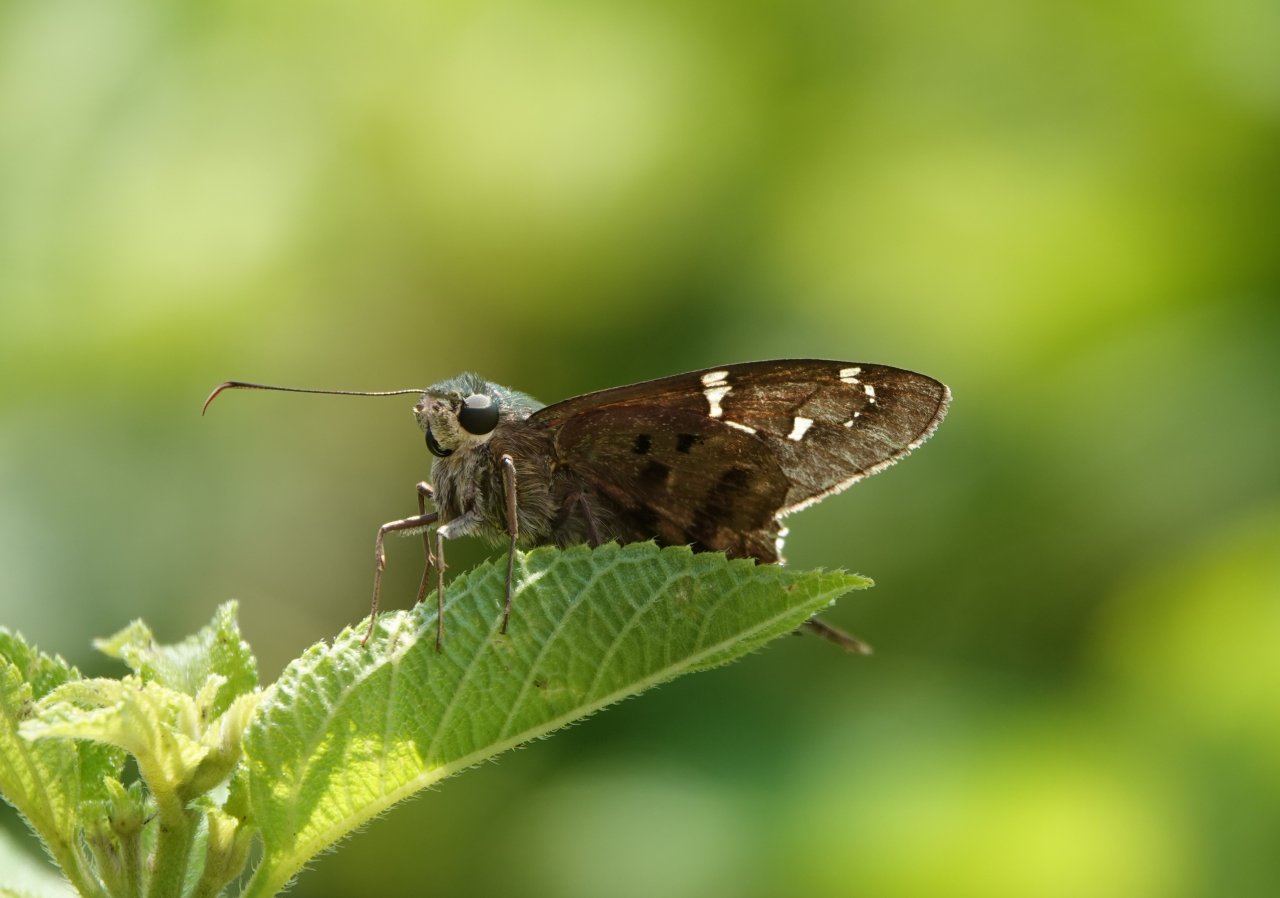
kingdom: Animalia
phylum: Arthropoda
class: Insecta
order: Lepidoptera
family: Hesperiidae
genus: Urbanus
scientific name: Urbanus proteus
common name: Long-tailed Skipper
